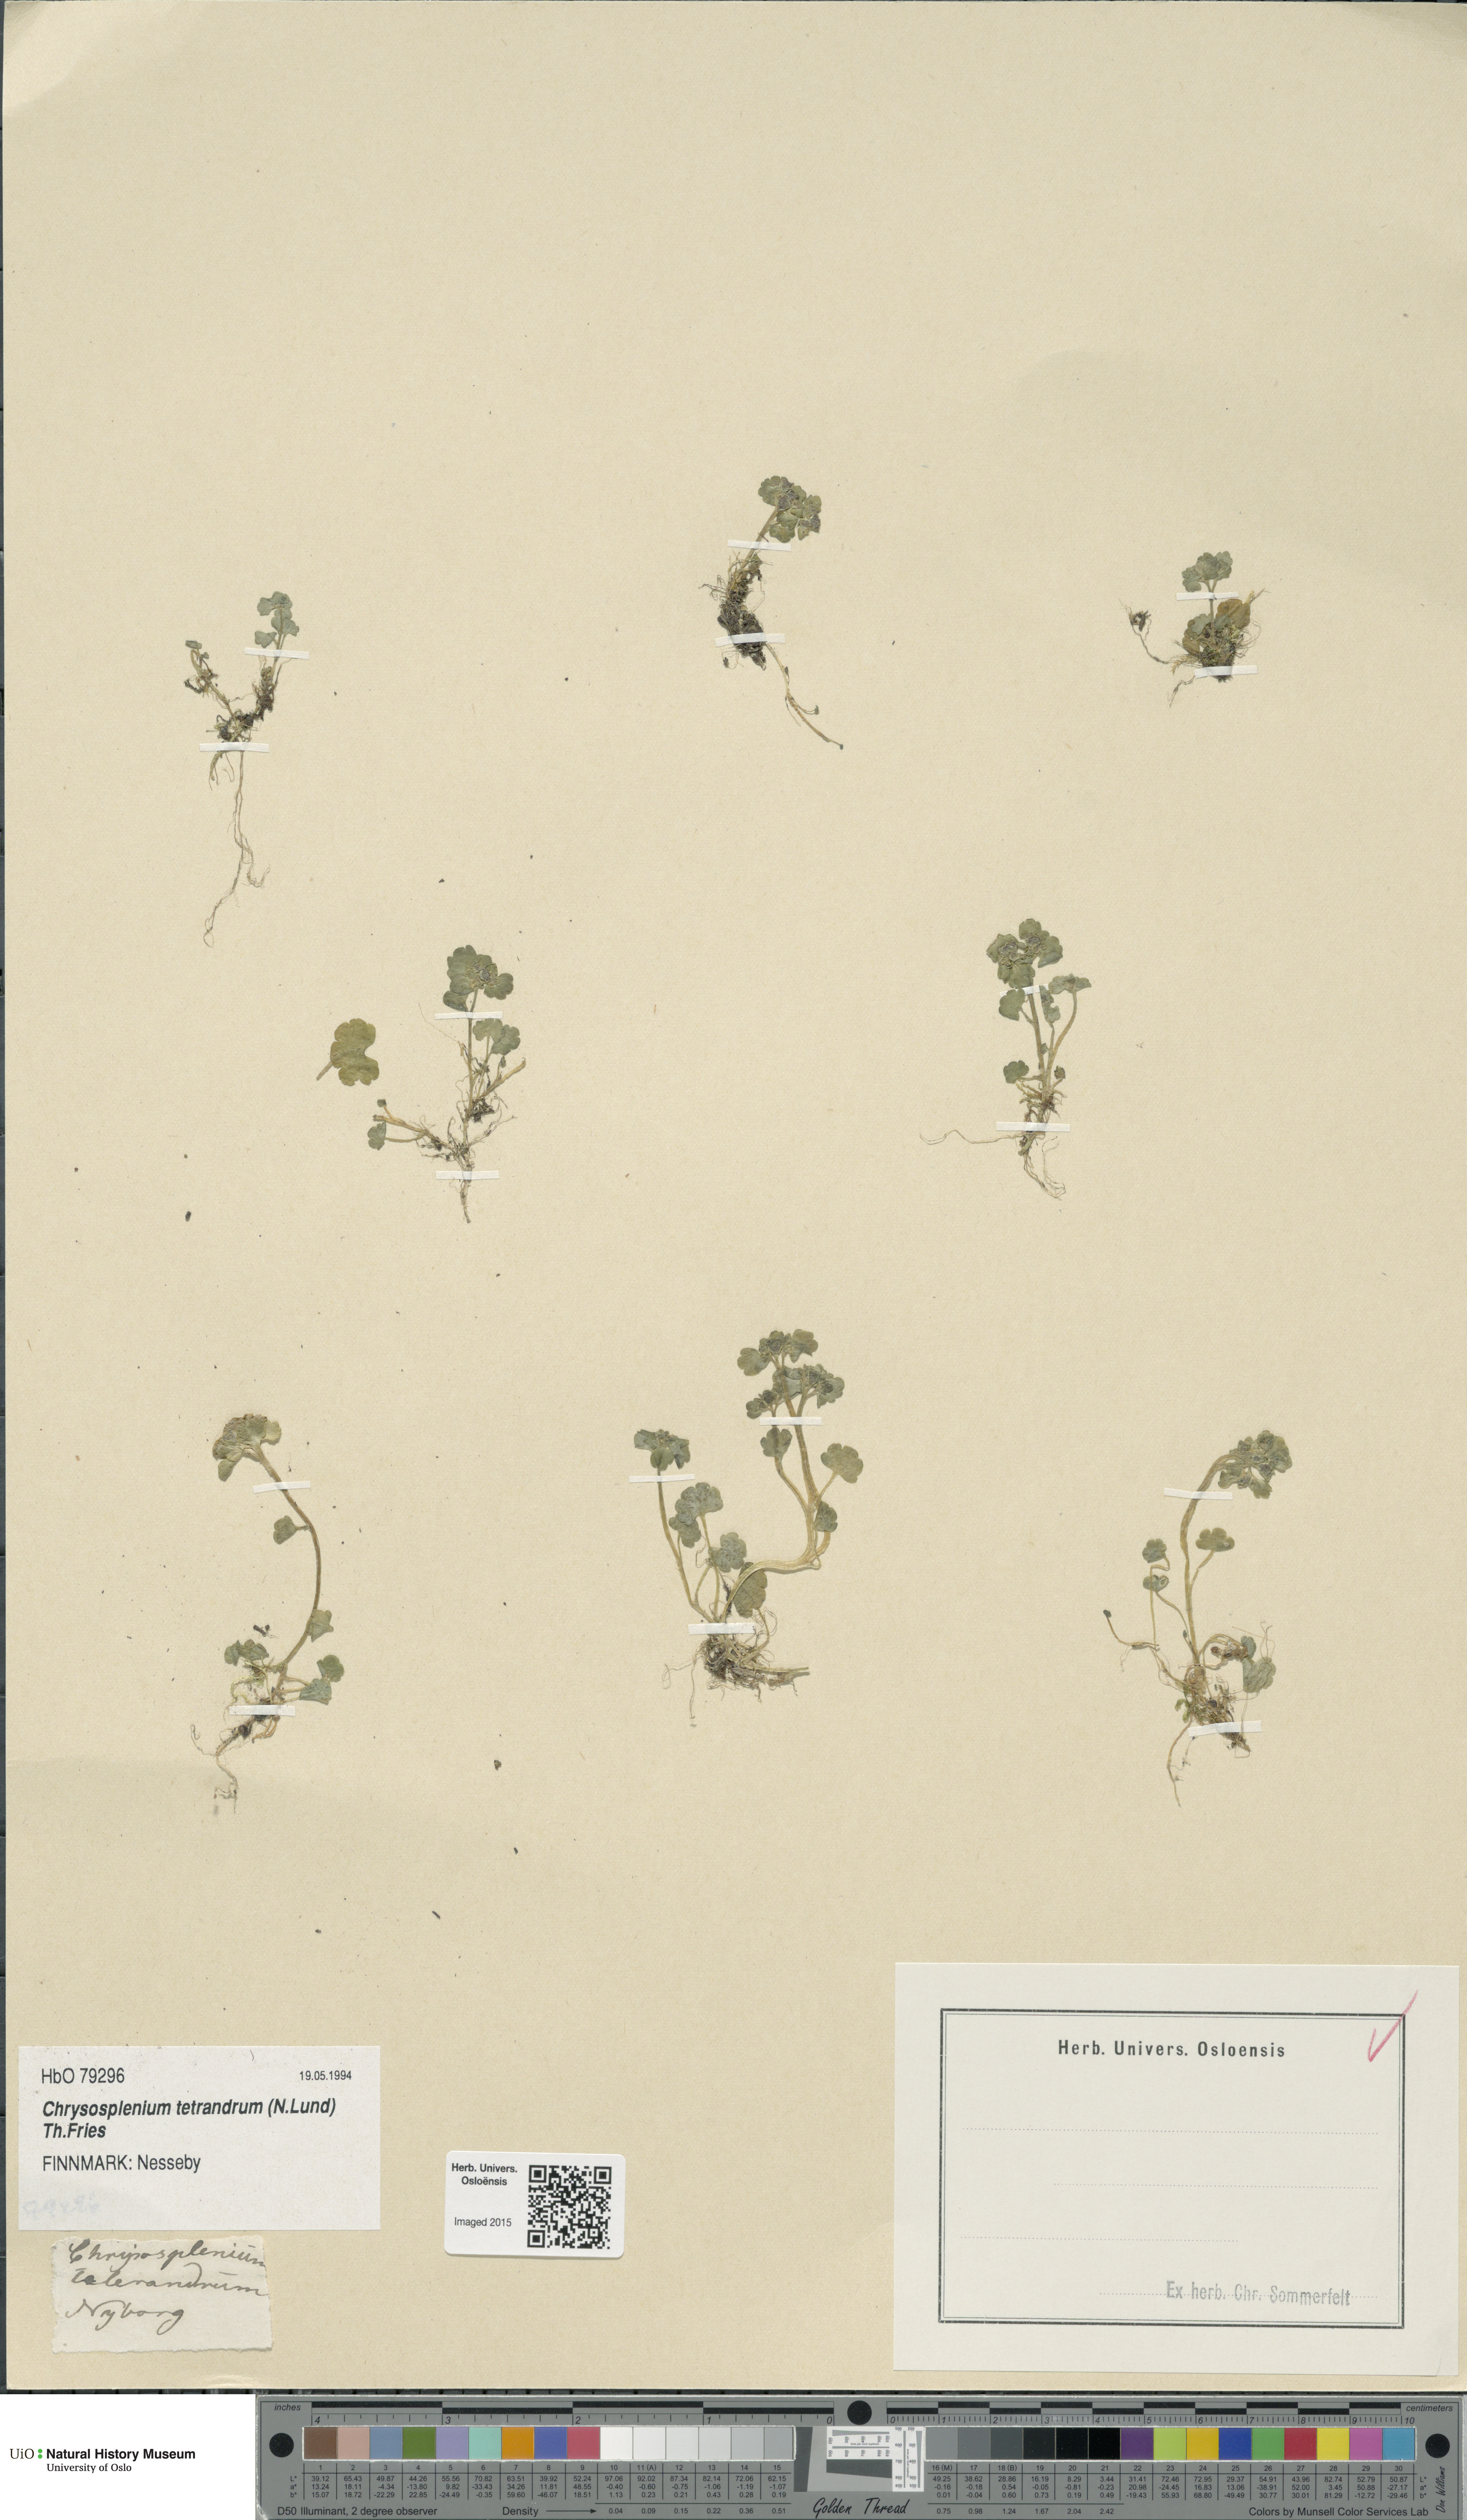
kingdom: Plantae
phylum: Tracheophyta
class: Magnoliopsida
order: Saxifragales
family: Saxifragaceae
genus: Chrysosplenium
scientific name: Chrysosplenium tetrandrum
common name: Green saxifrage
